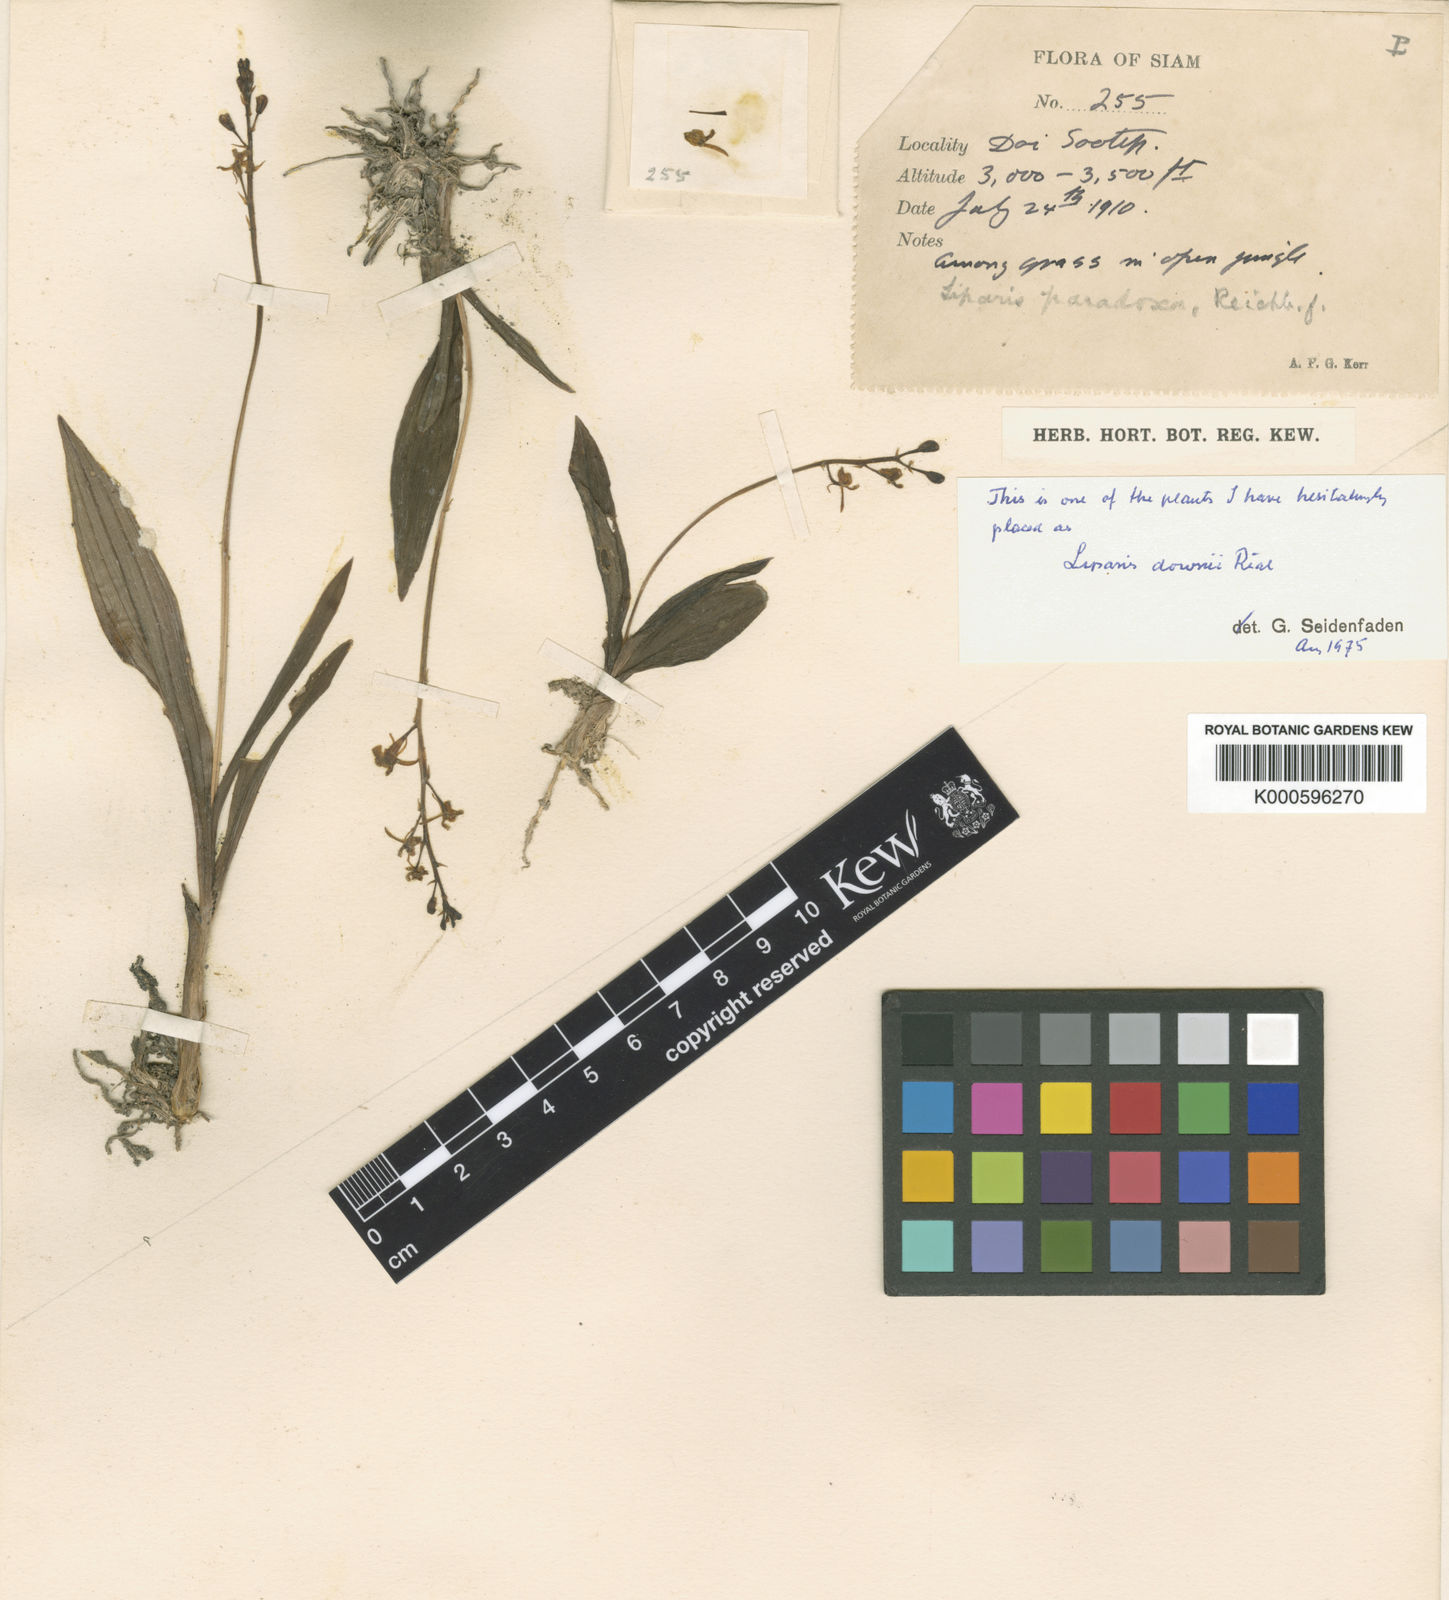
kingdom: Plantae
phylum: Tracheophyta
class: Liliopsida
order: Asparagales
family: Orchidaceae
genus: Liparis
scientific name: Liparis odorata
